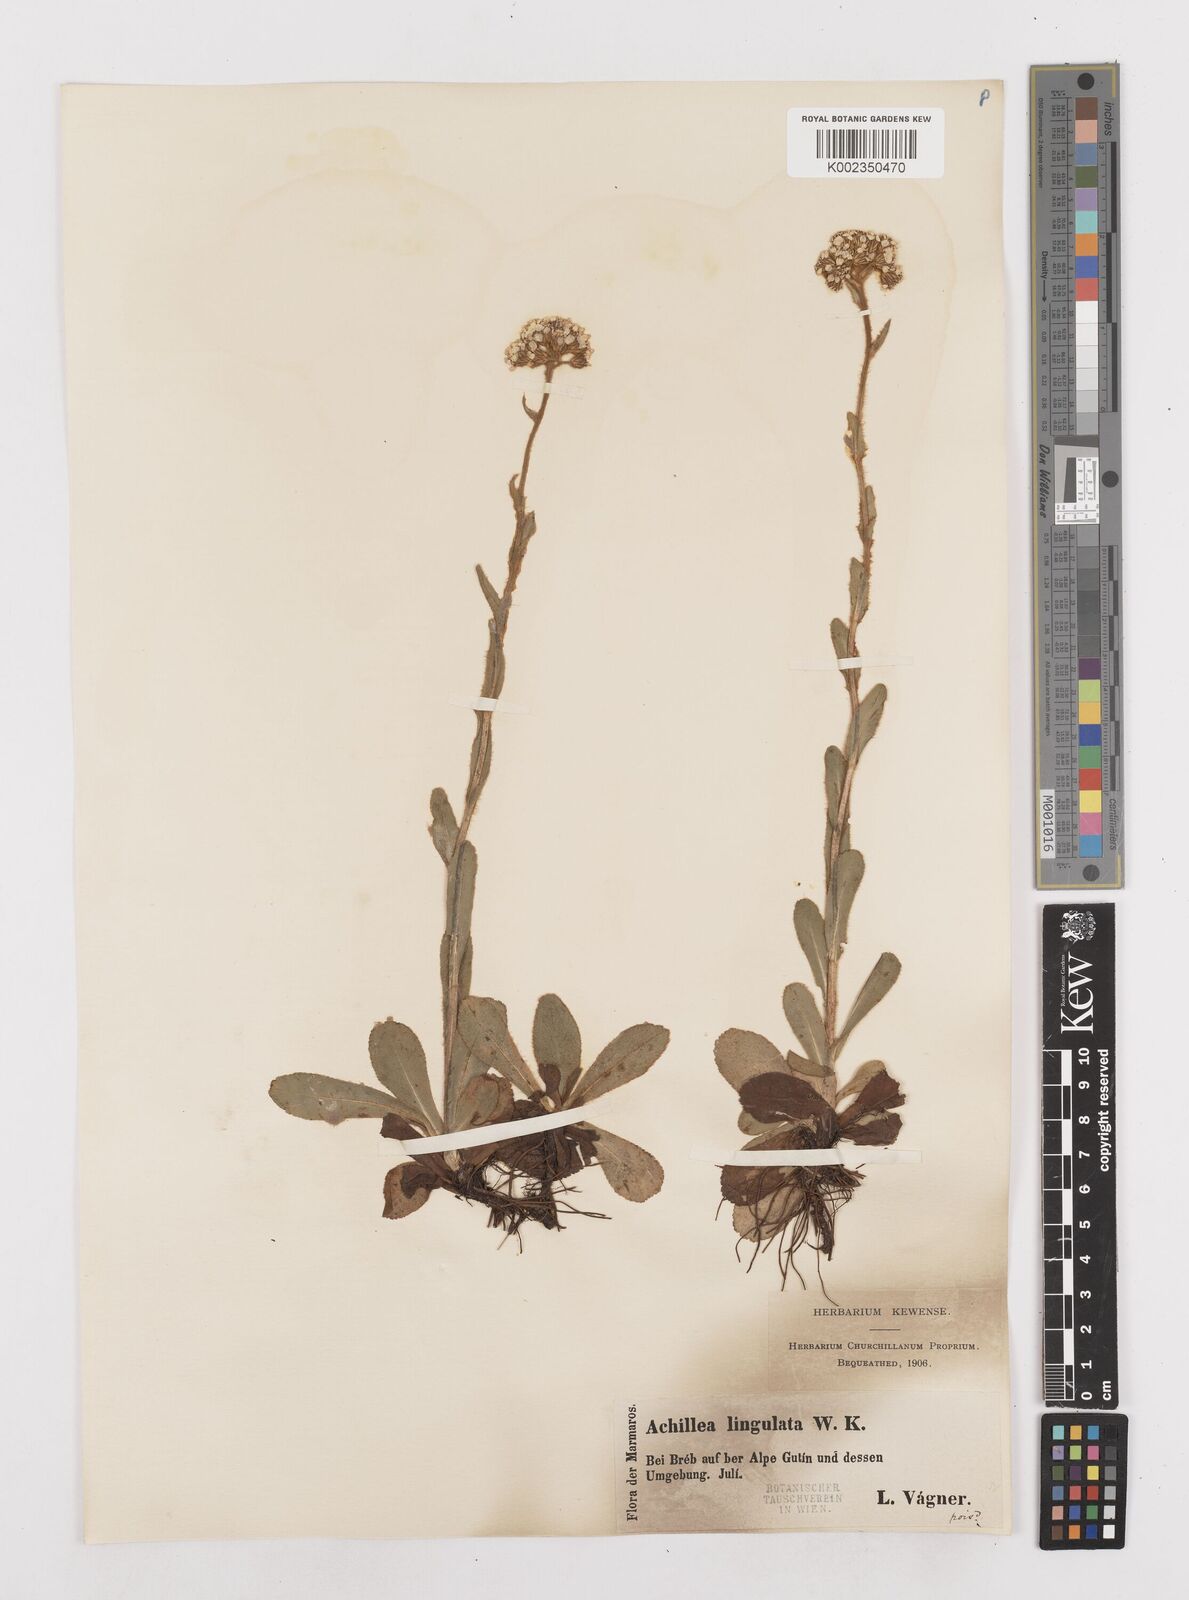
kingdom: Plantae
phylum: Tracheophyta
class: Magnoliopsida
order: Asterales
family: Asteraceae
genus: Achillea
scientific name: Achillea lingulata
